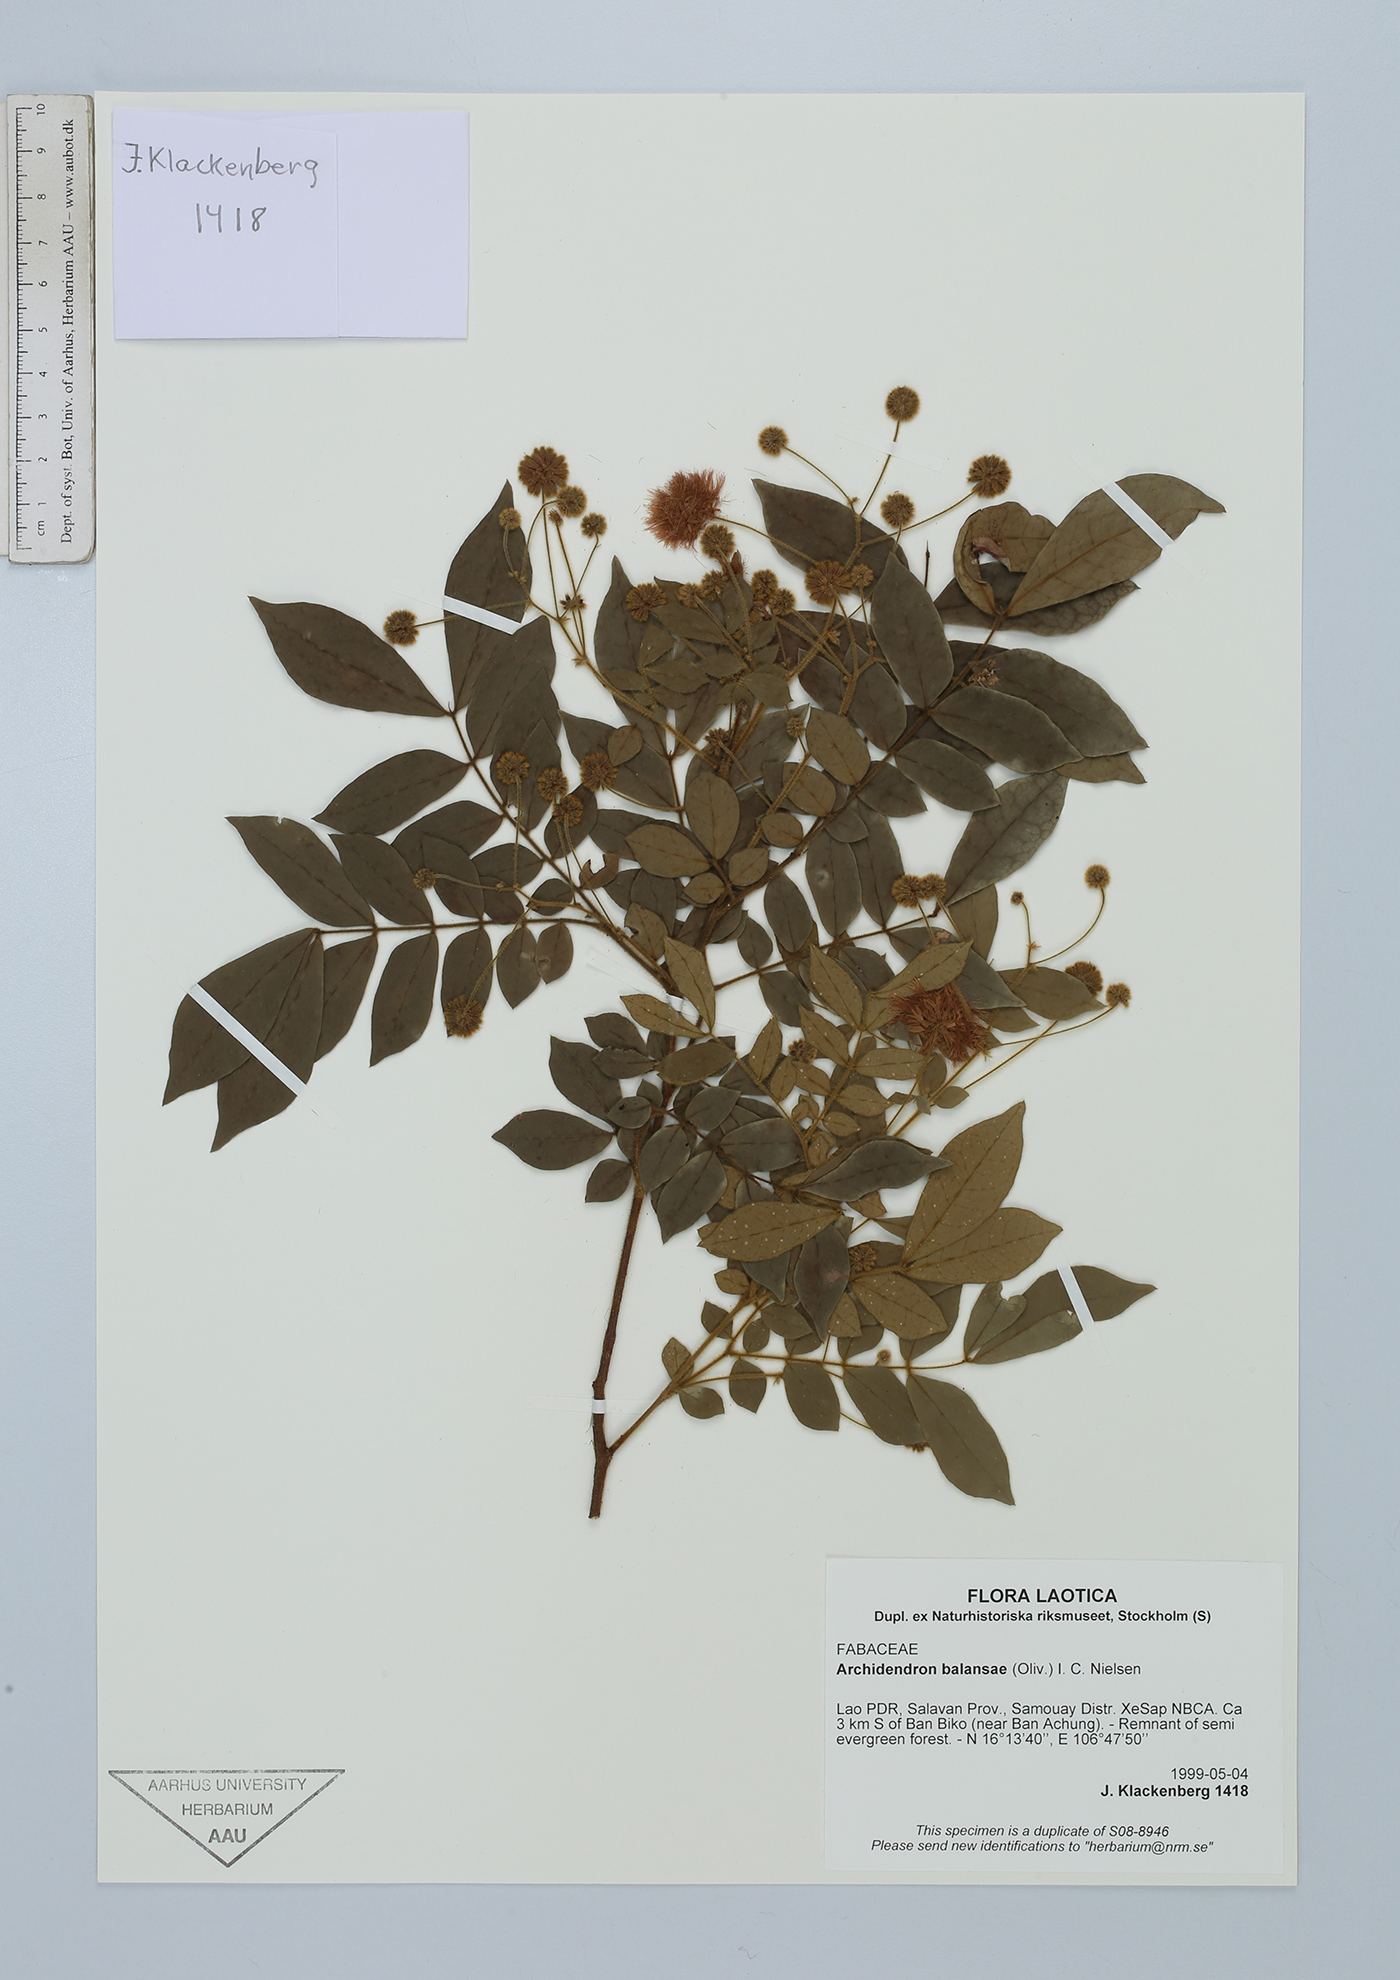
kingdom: Plantae
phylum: Tracheophyta
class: Magnoliopsida
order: Fabales
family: Fabaceae
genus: Archidendron
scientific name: Archidendron balansae
